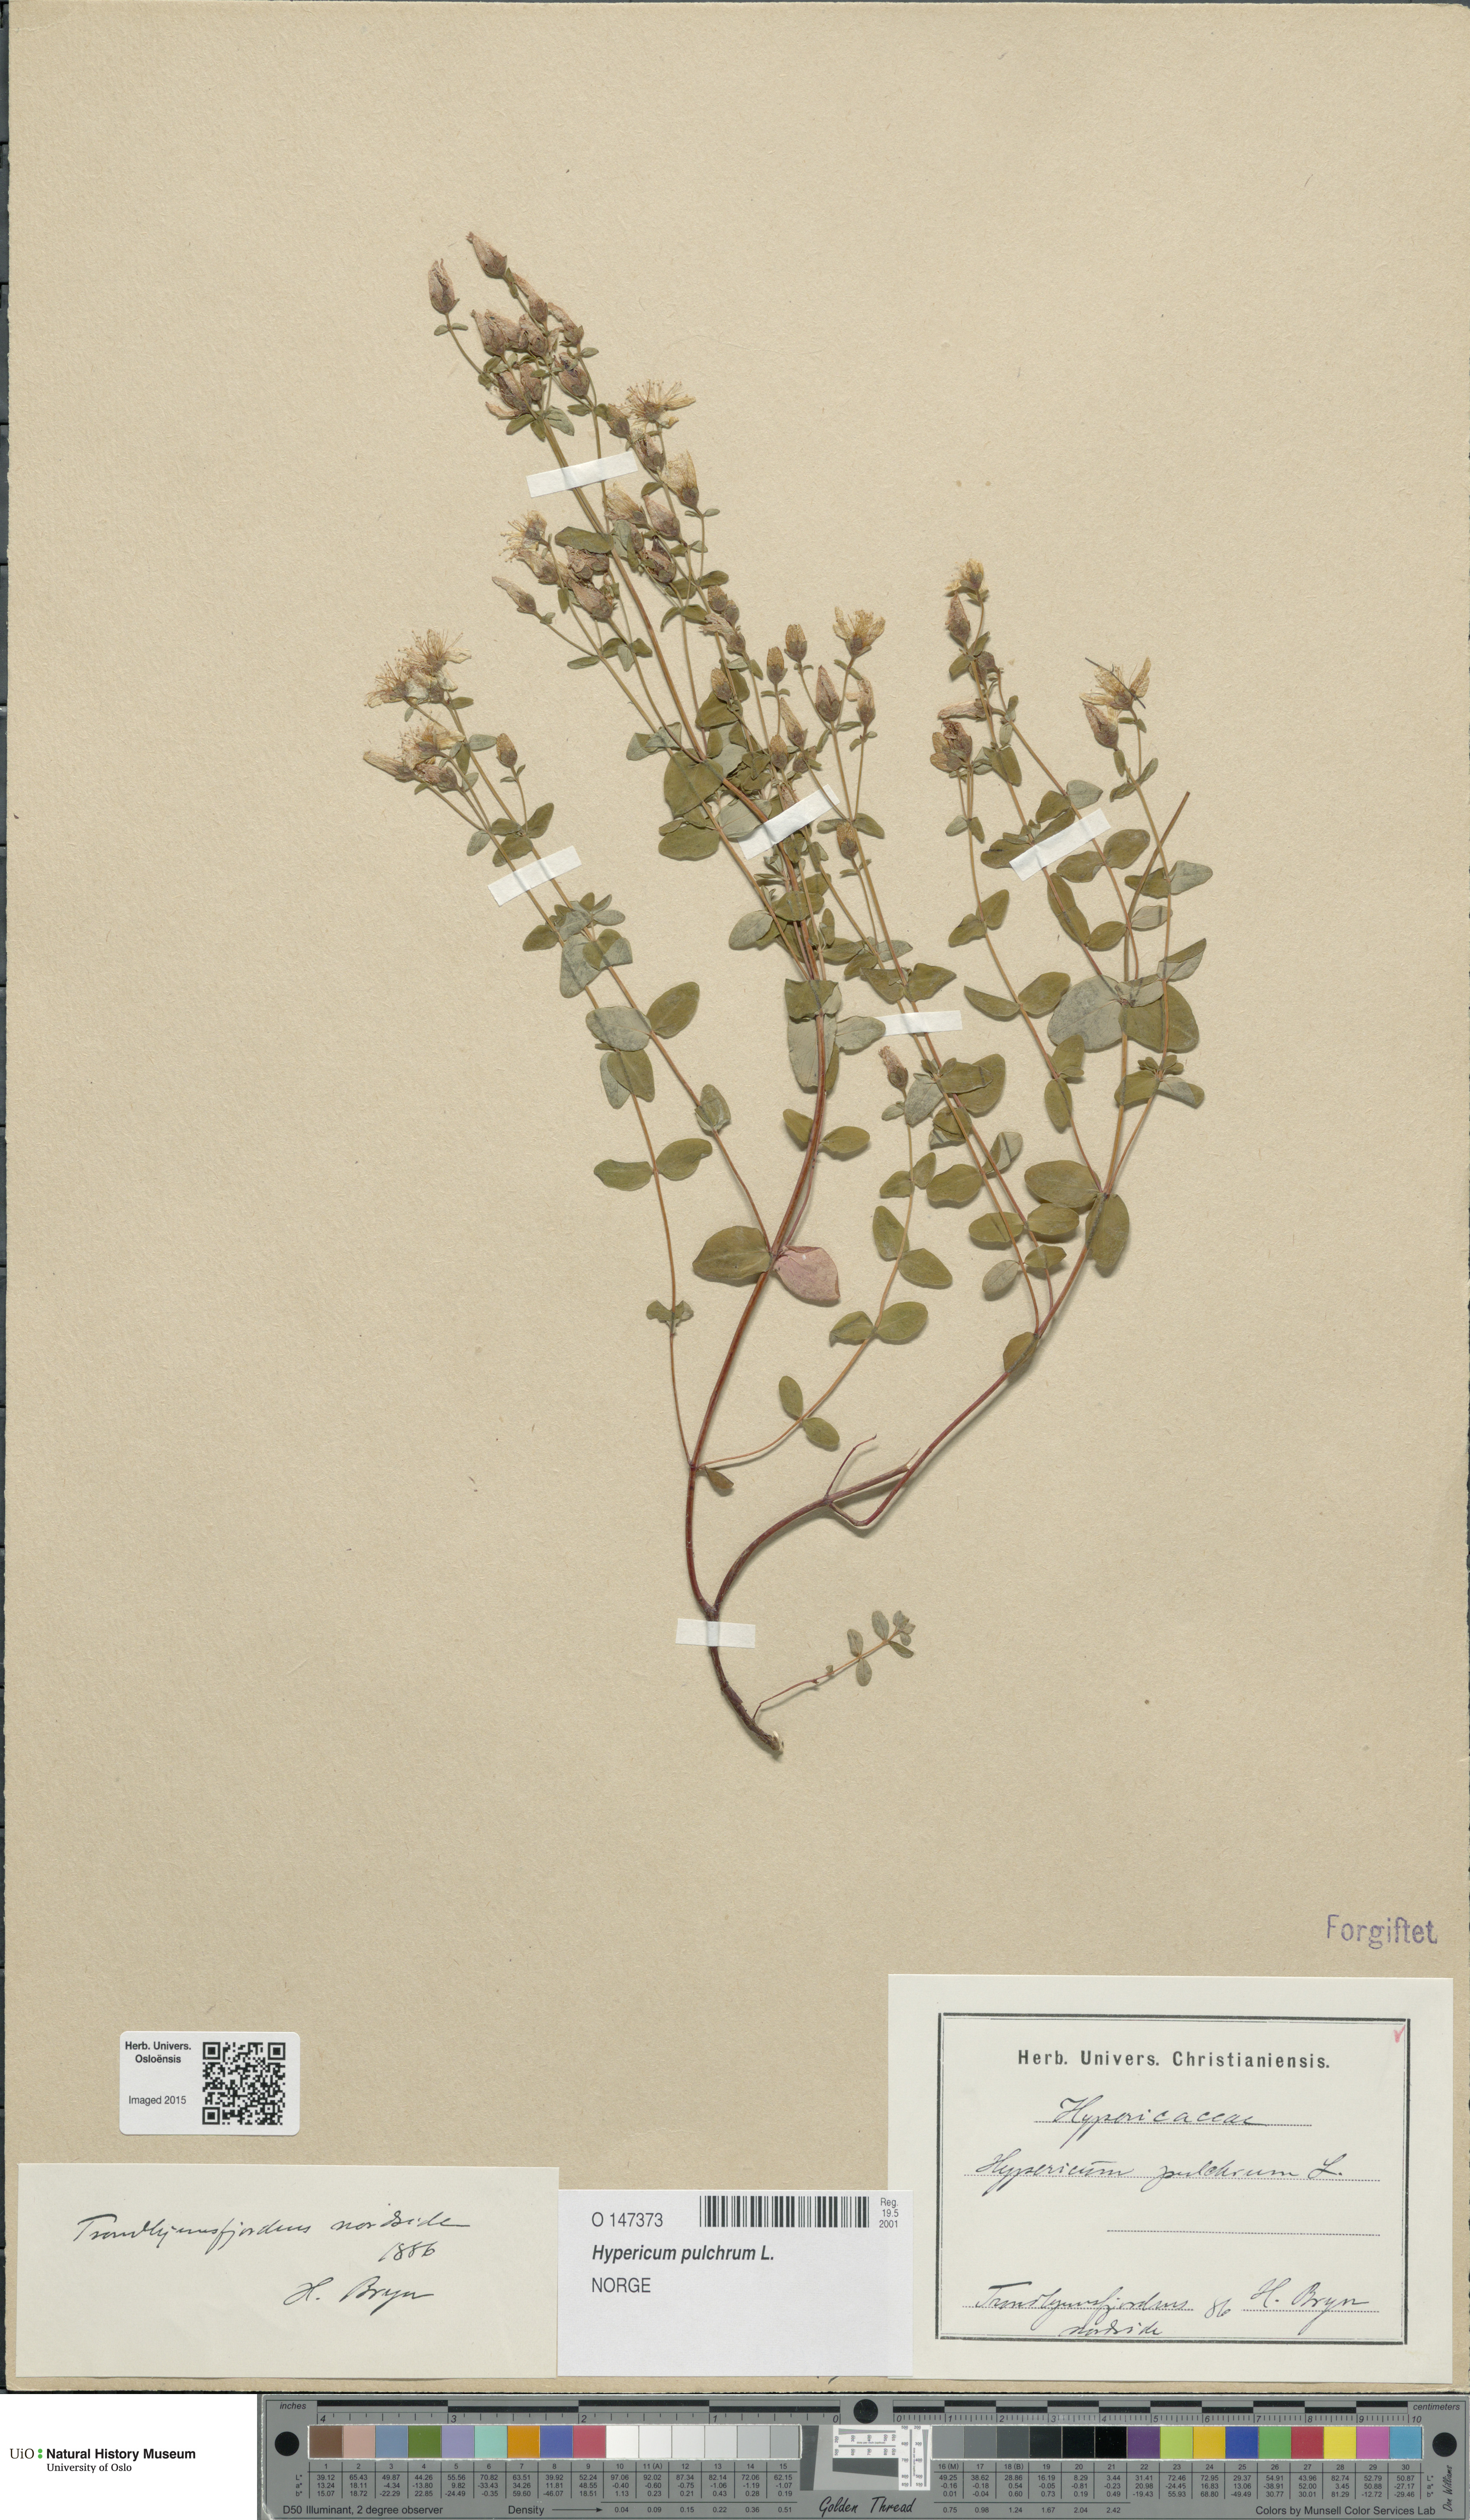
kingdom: Plantae
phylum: Tracheophyta
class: Magnoliopsida
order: Malpighiales
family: Hypericaceae
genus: Hypericum
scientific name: Hypericum pulchrum
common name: Slender st. john's-wort
